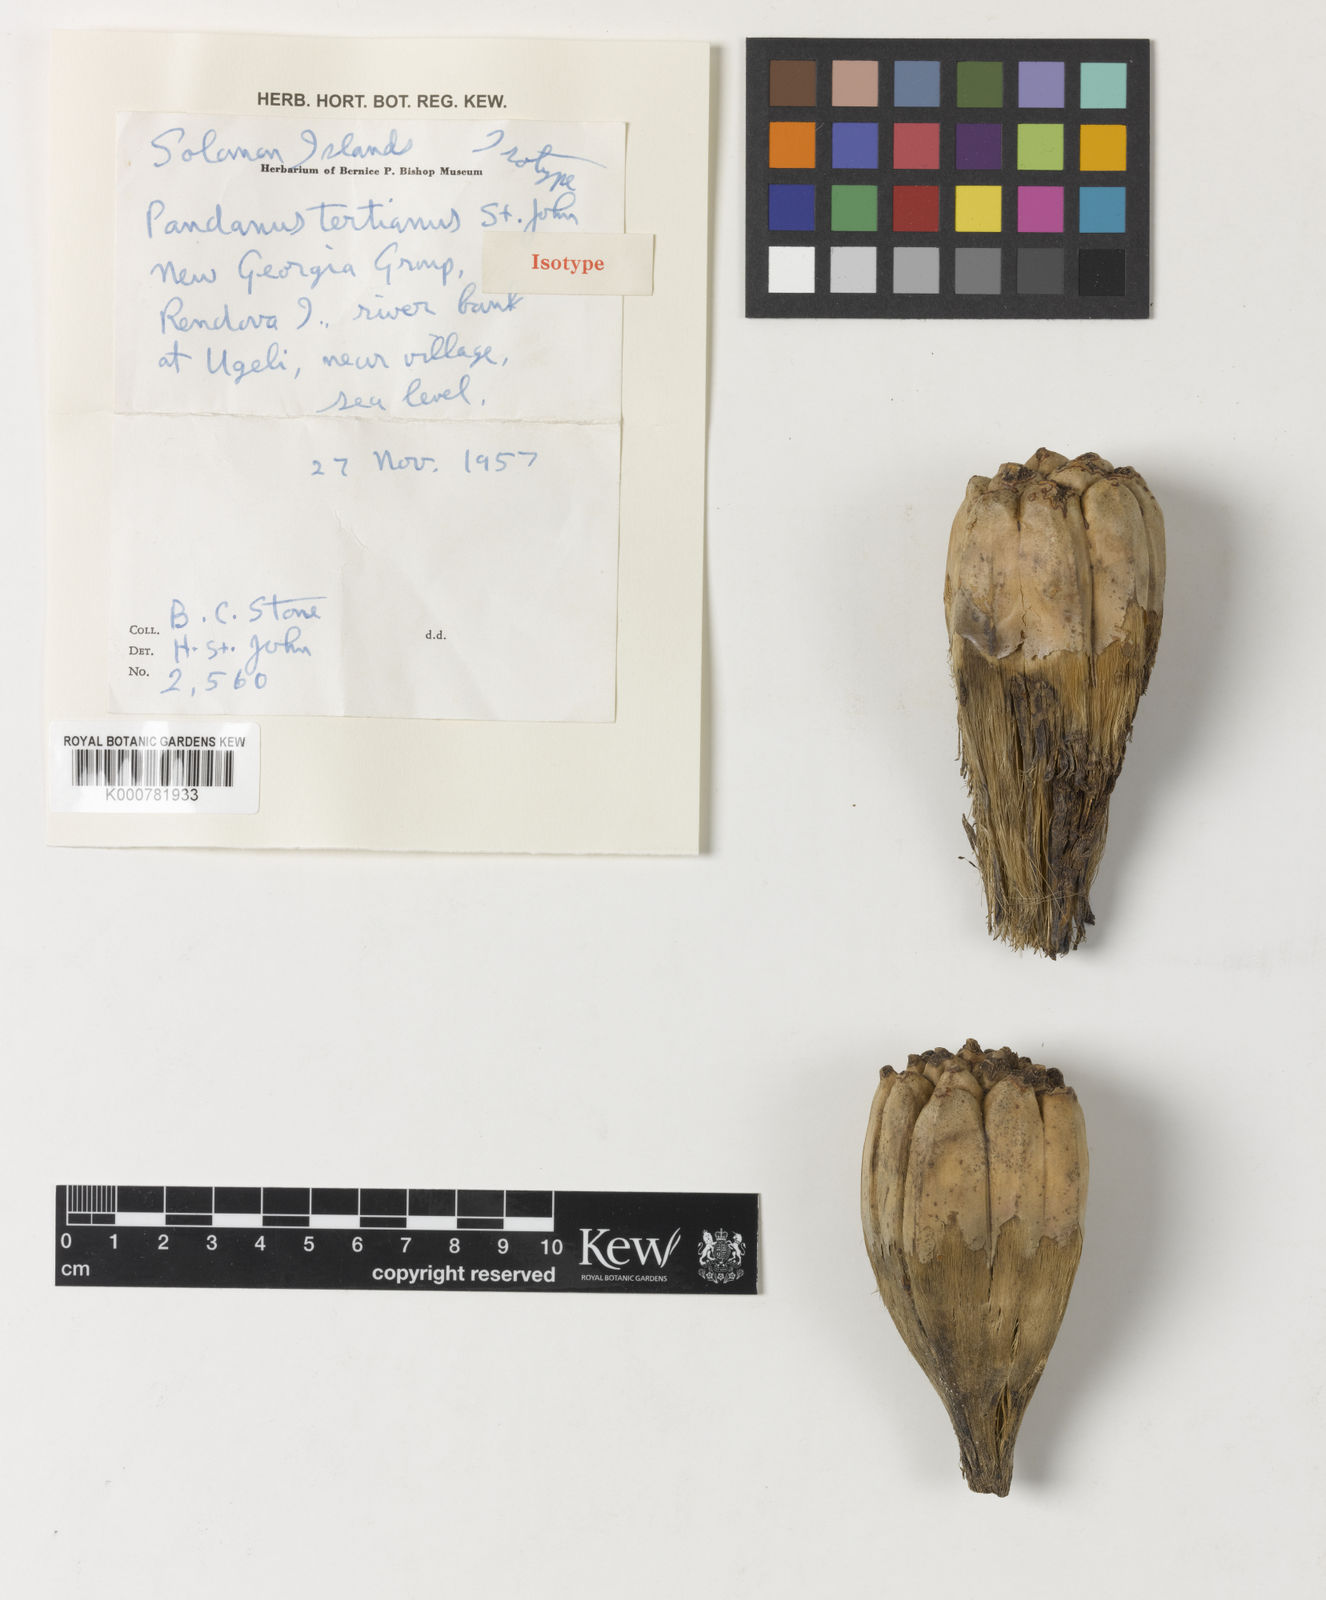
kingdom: Plantae
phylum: Tracheophyta
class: Liliopsida
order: Pandanales
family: Pandanaceae
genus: Pandanus
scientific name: Pandanus
